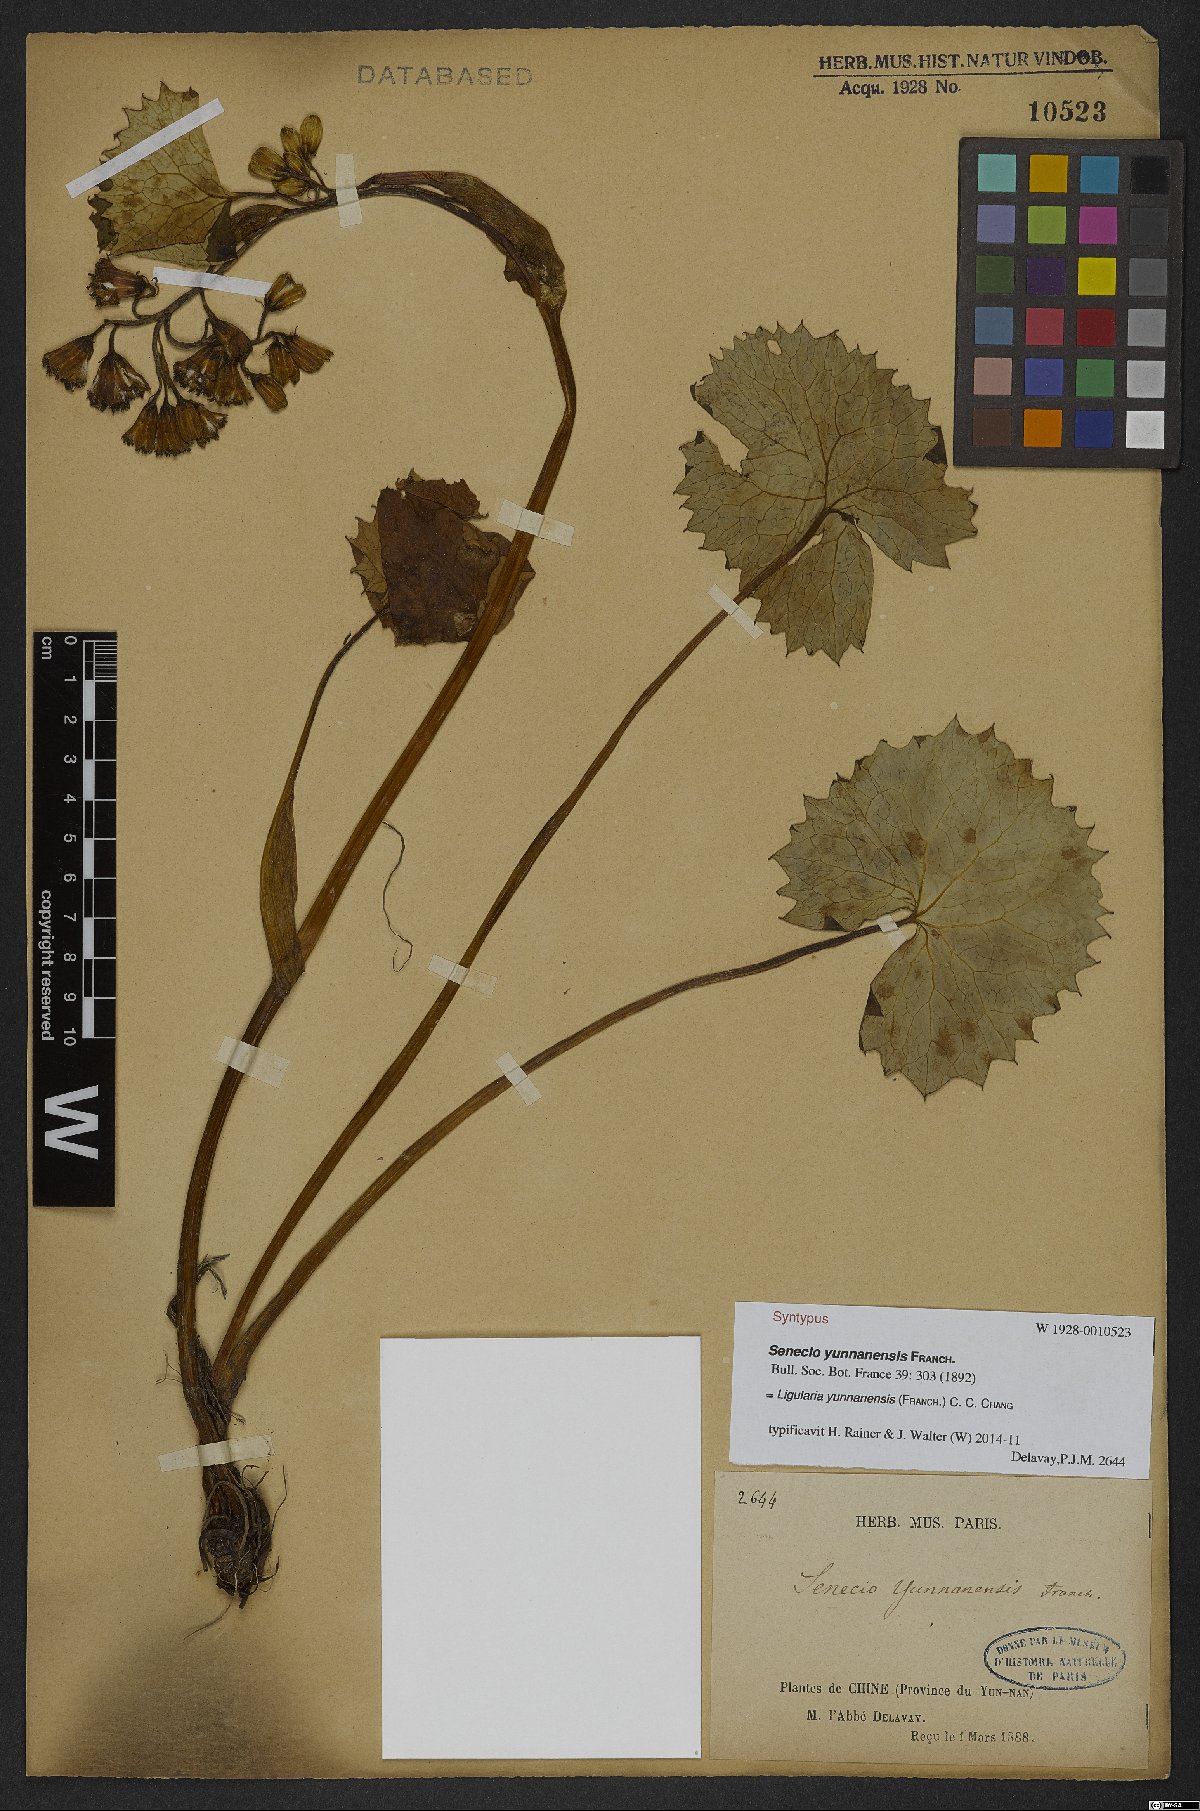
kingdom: Plantae
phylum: Tracheophyta
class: Magnoliopsida
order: Asterales
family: Asteraceae
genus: Ligularia
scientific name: Ligularia yunnanensis
